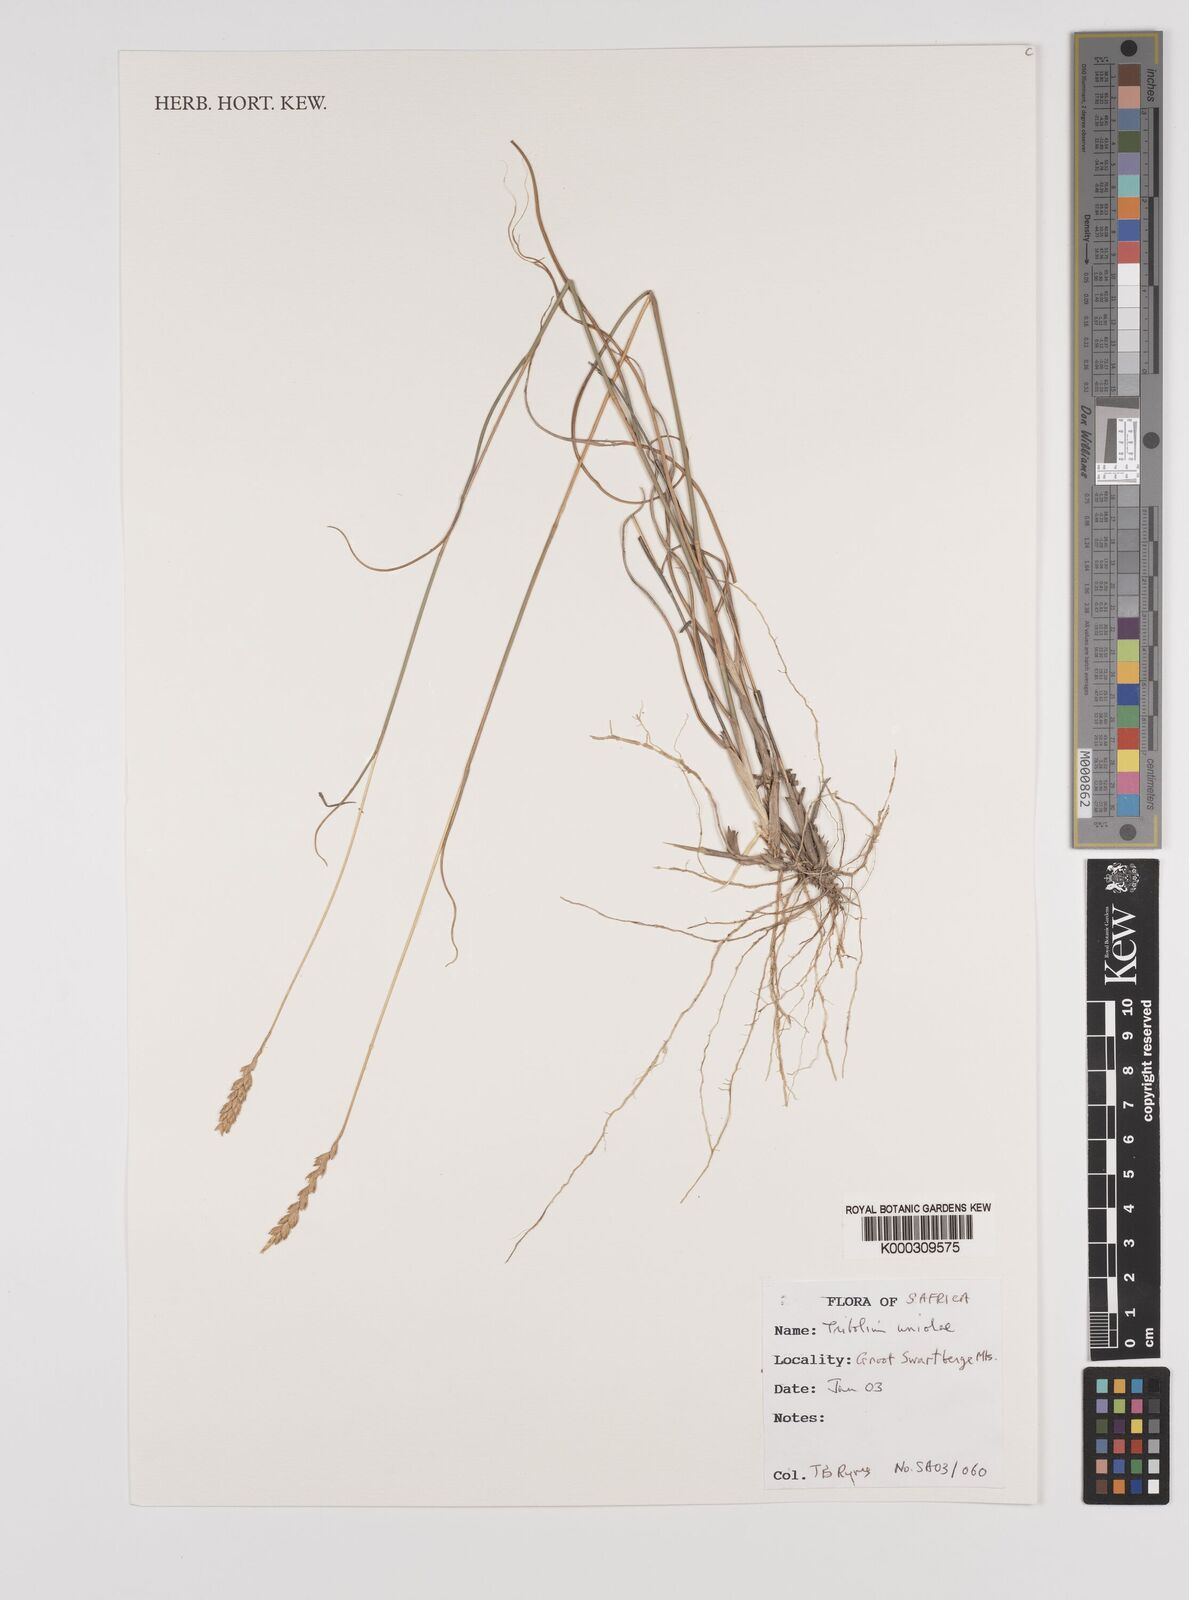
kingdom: Plantae
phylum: Tracheophyta
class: Liliopsida
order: Poales
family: Poaceae
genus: Tribolium
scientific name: Tribolium uniolae
